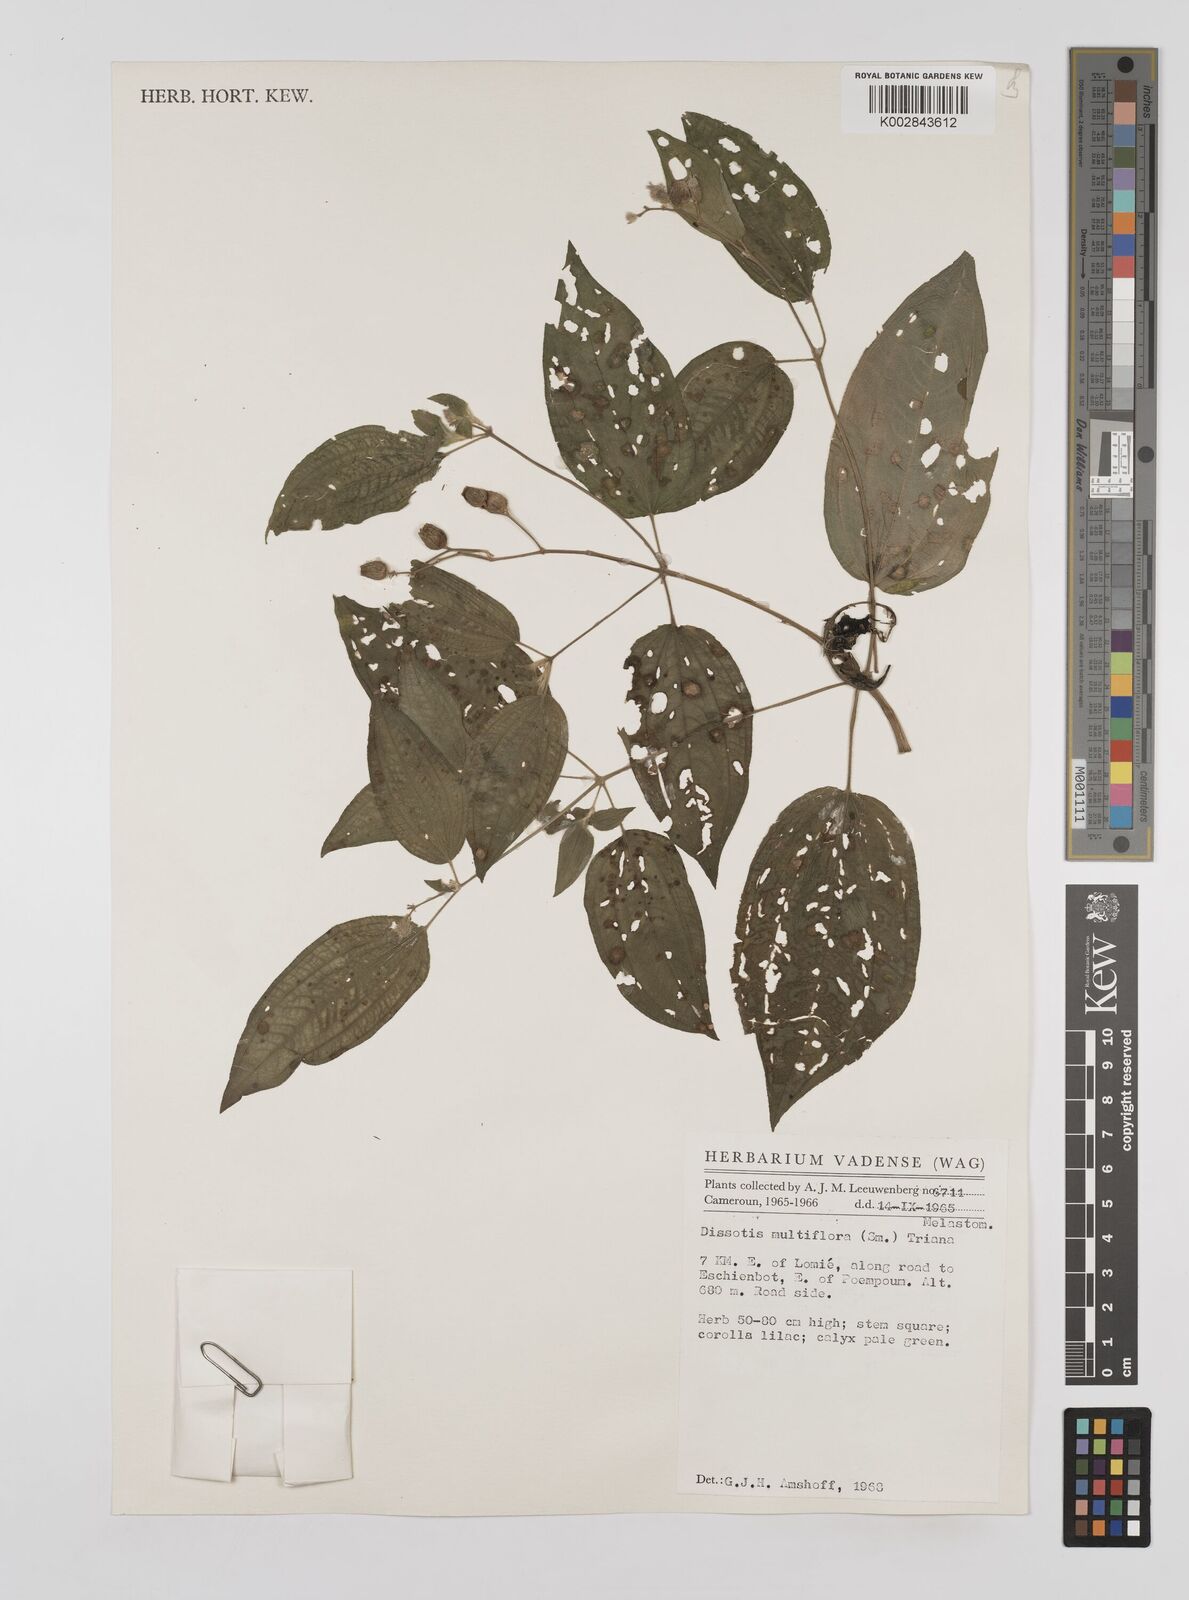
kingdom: Plantae
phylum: Tracheophyta
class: Magnoliopsida
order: Myrtales
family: Melastomataceae
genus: Dupineta
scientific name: Dupineta multiflora
